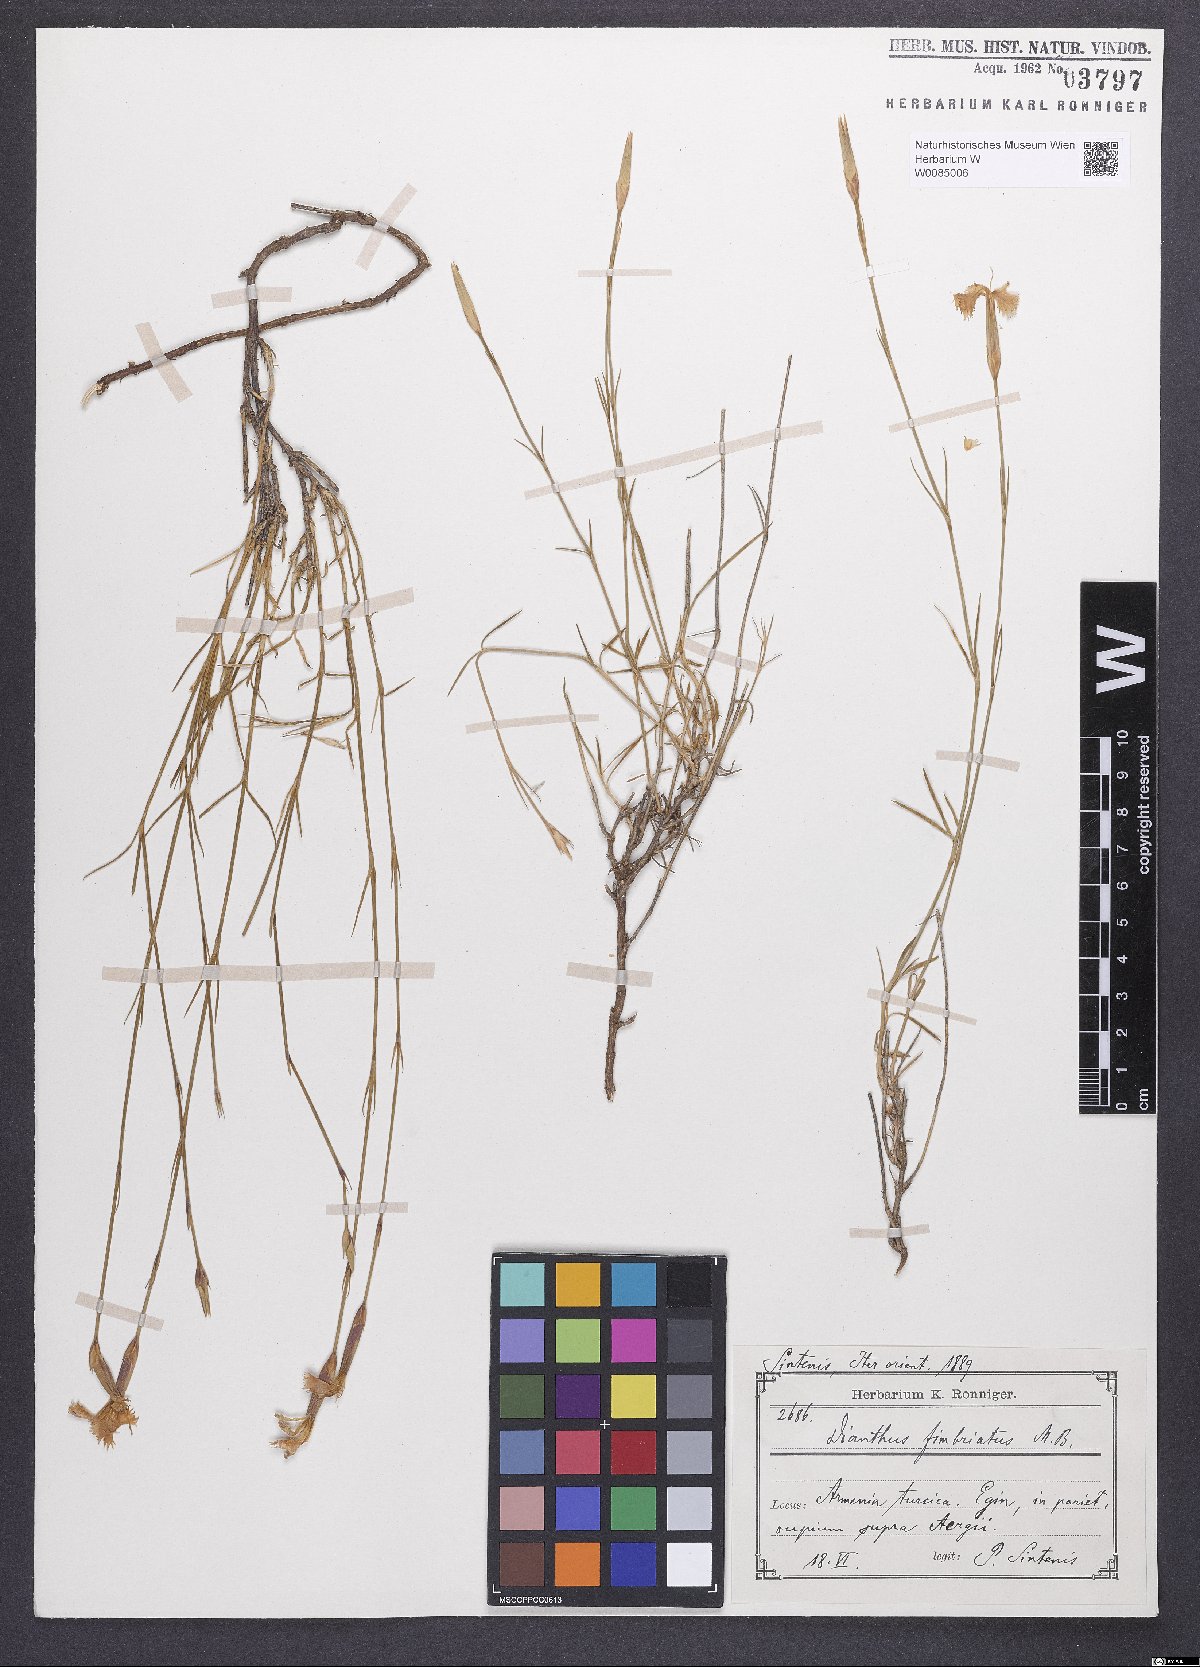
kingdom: Plantae
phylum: Tracheophyta
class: Magnoliopsida
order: Caryophyllales
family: Caryophyllaceae
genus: Dianthus
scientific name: Dianthus broteri
